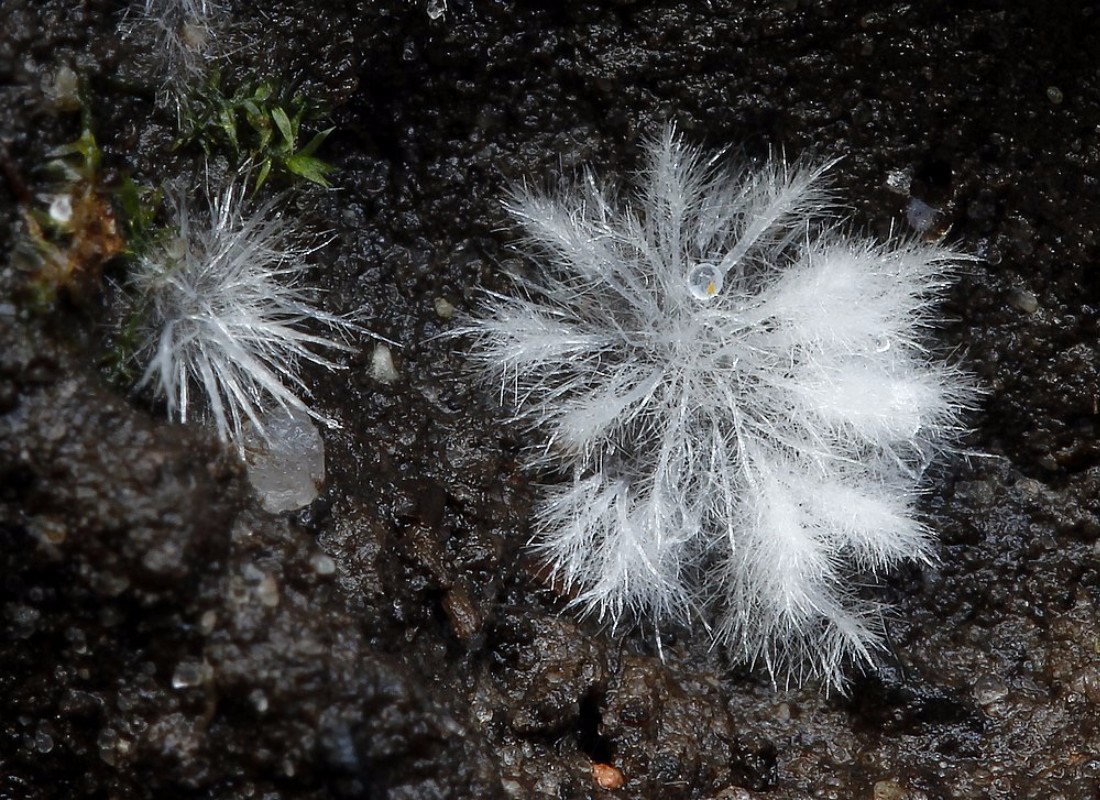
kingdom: Fungi
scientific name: Fungi
